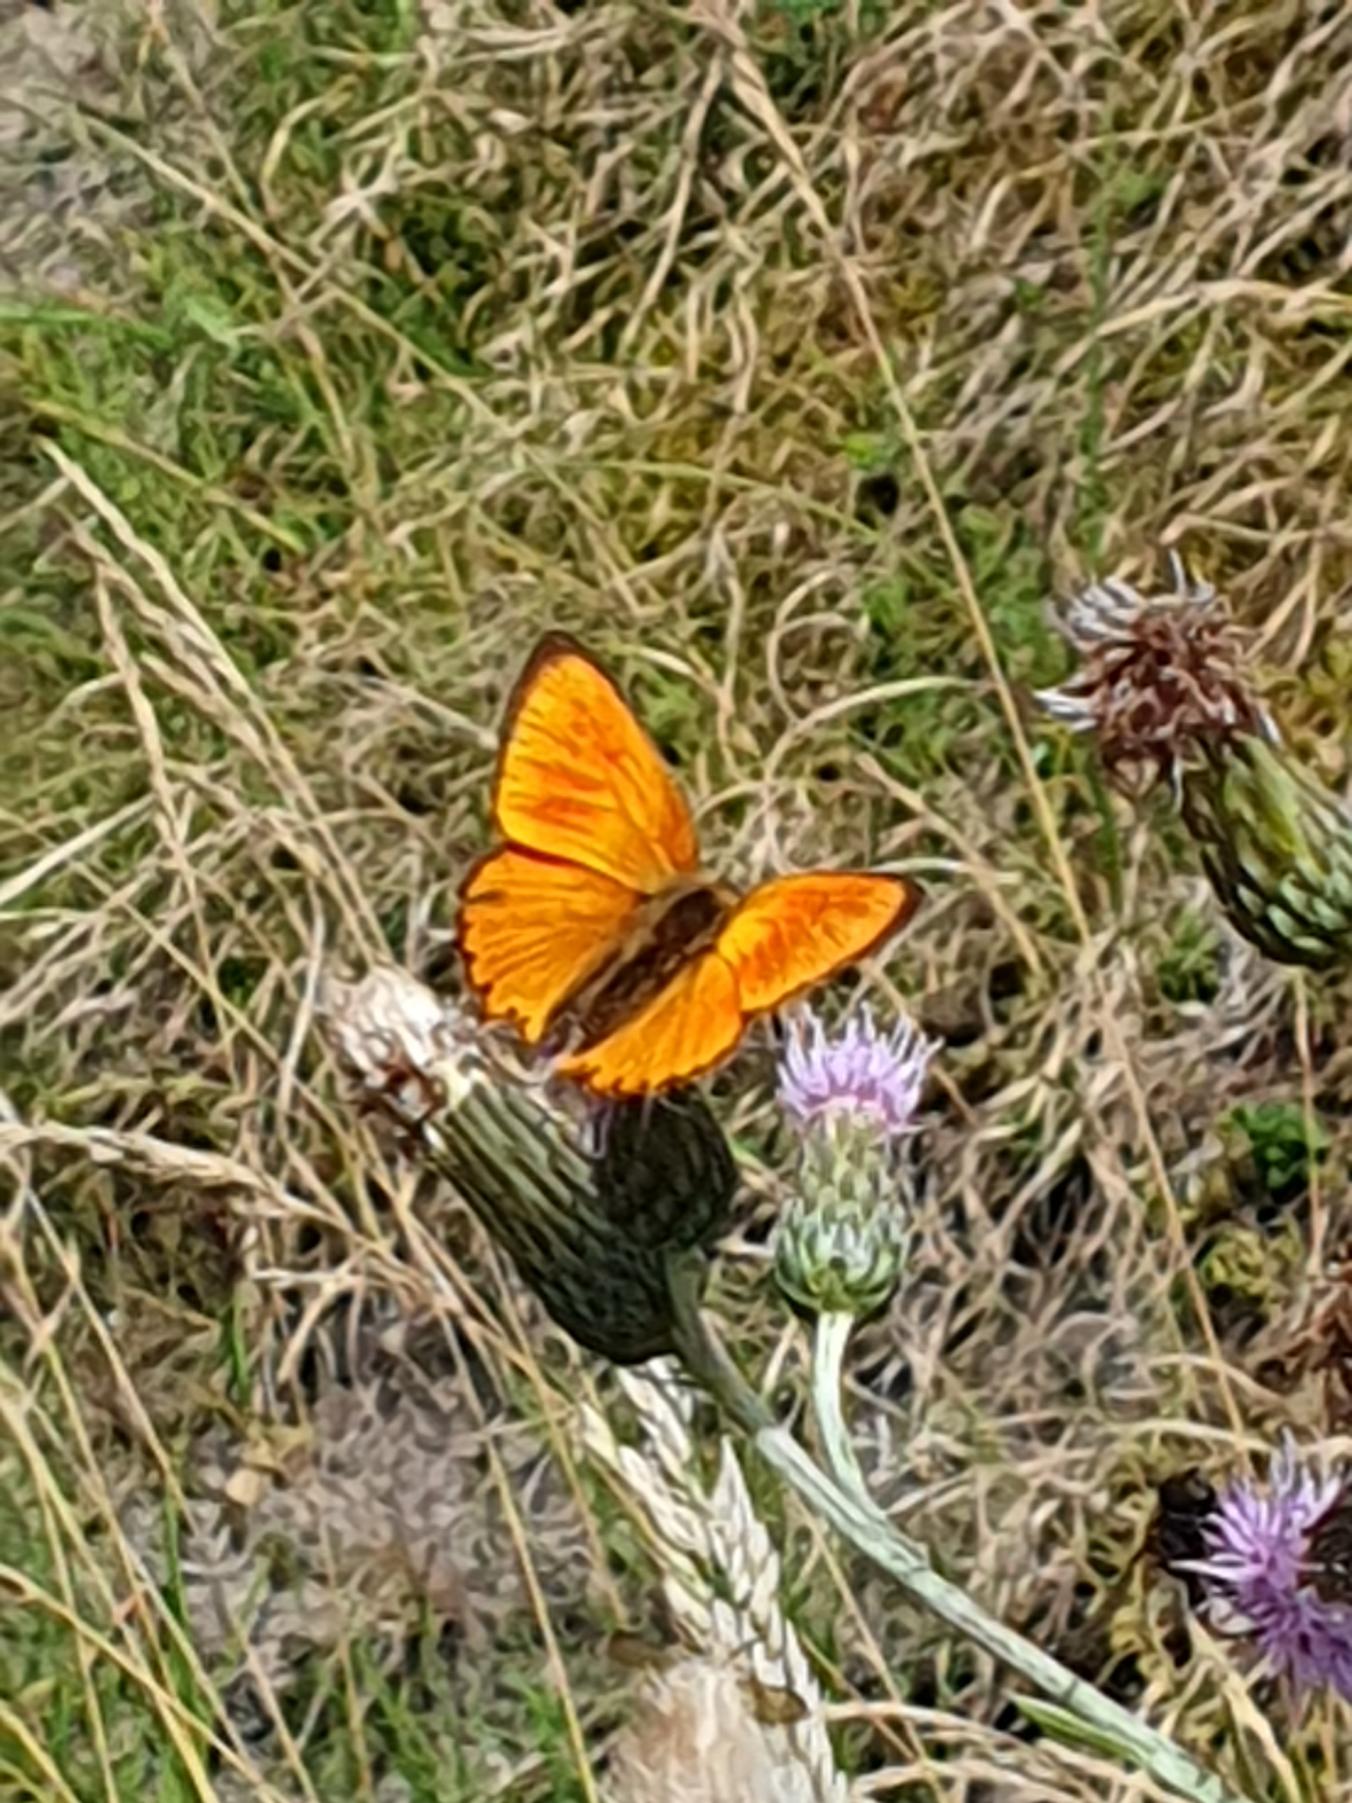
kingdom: Animalia
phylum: Arthropoda
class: Insecta
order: Lepidoptera
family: Lycaenidae
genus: Lycaena
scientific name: Lycaena virgaureae
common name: Dukatsommerfugl
